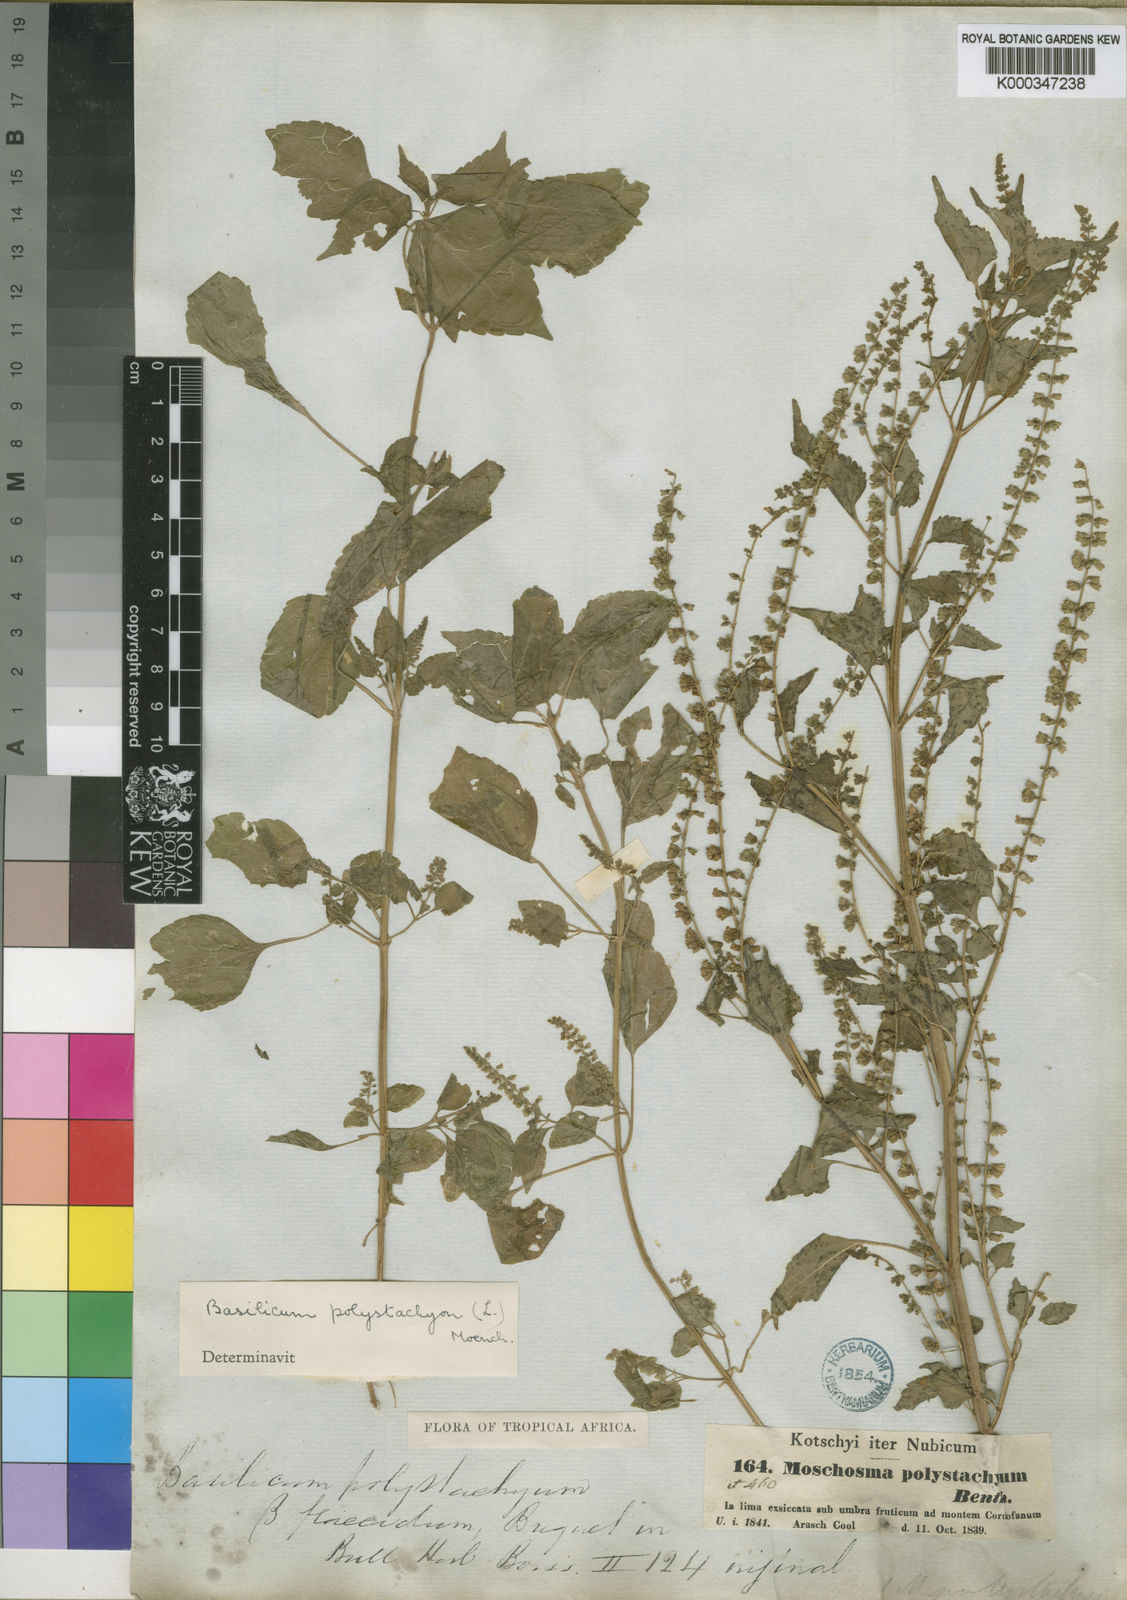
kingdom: Plantae
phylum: Tracheophyta
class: Magnoliopsida
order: Lamiales
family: Lamiaceae
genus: Basilicum
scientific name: Basilicum polystachyon
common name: Musk-basil
